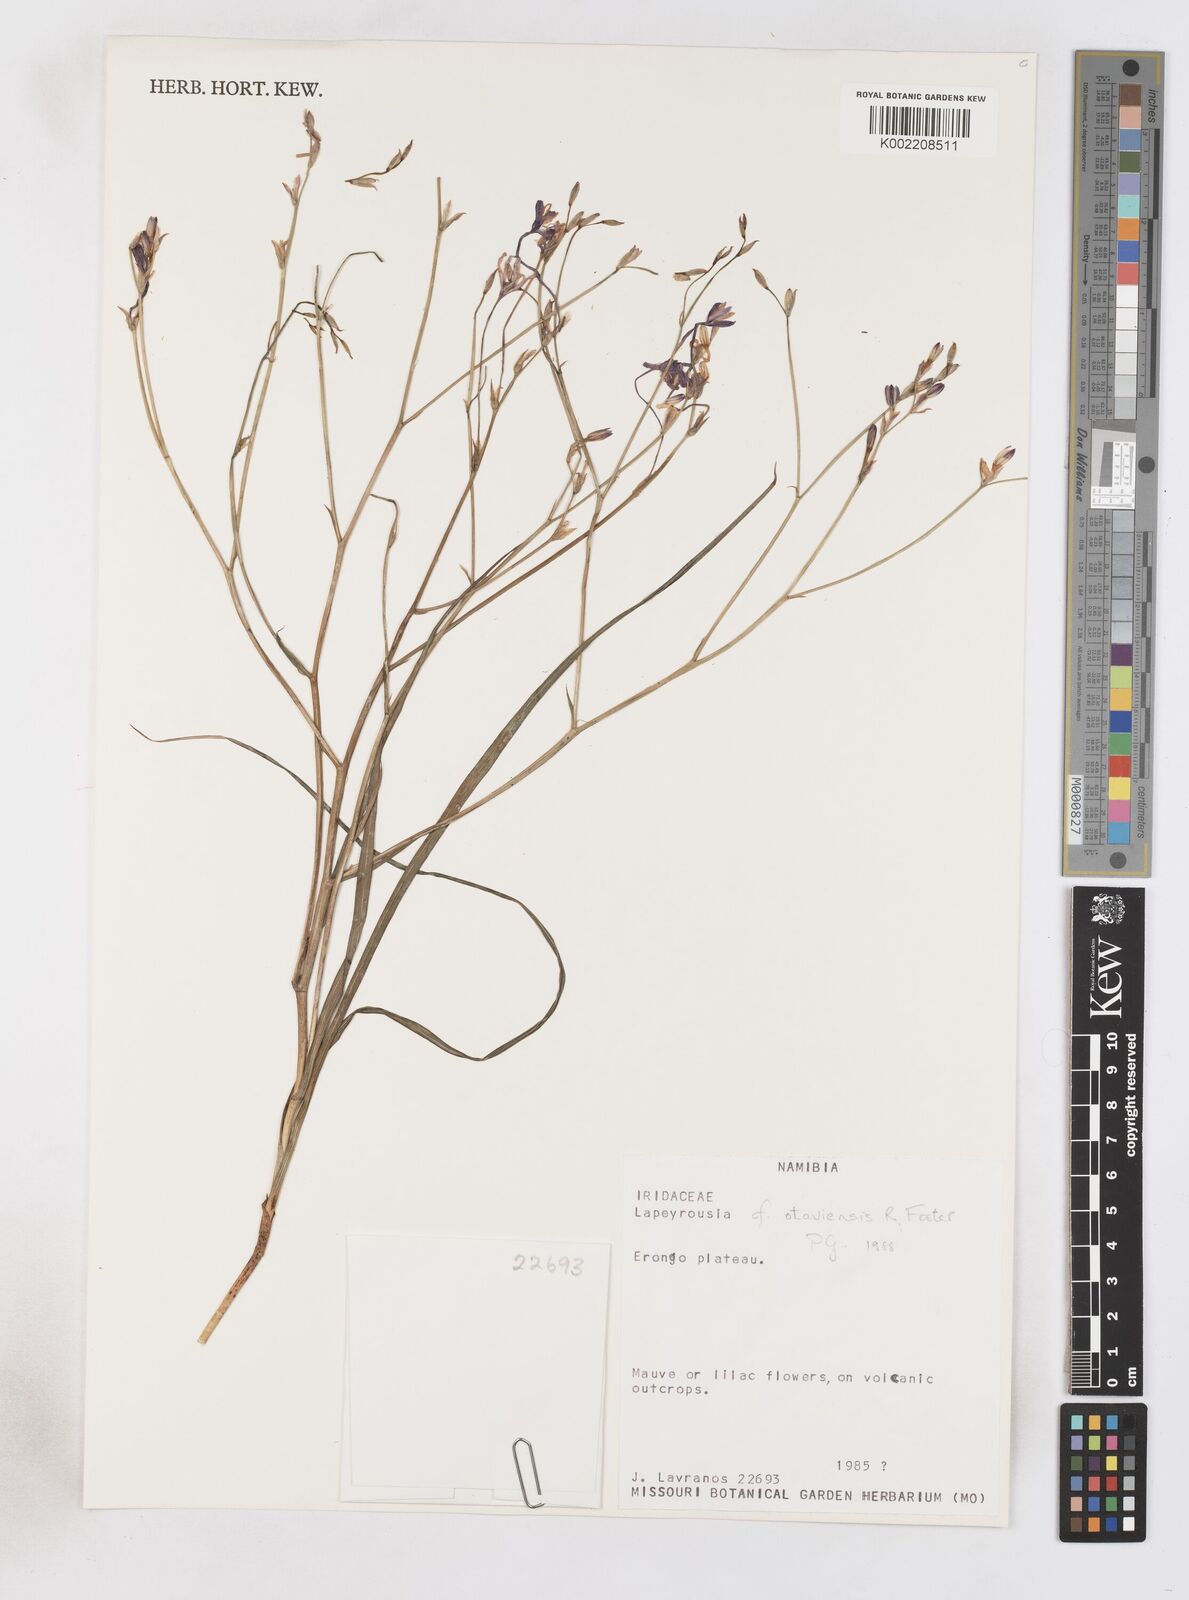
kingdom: Plantae
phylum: Tracheophyta
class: Liliopsida
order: Asparagales
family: Iridaceae
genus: Afrosolen
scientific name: Afrosolen otaviensis
